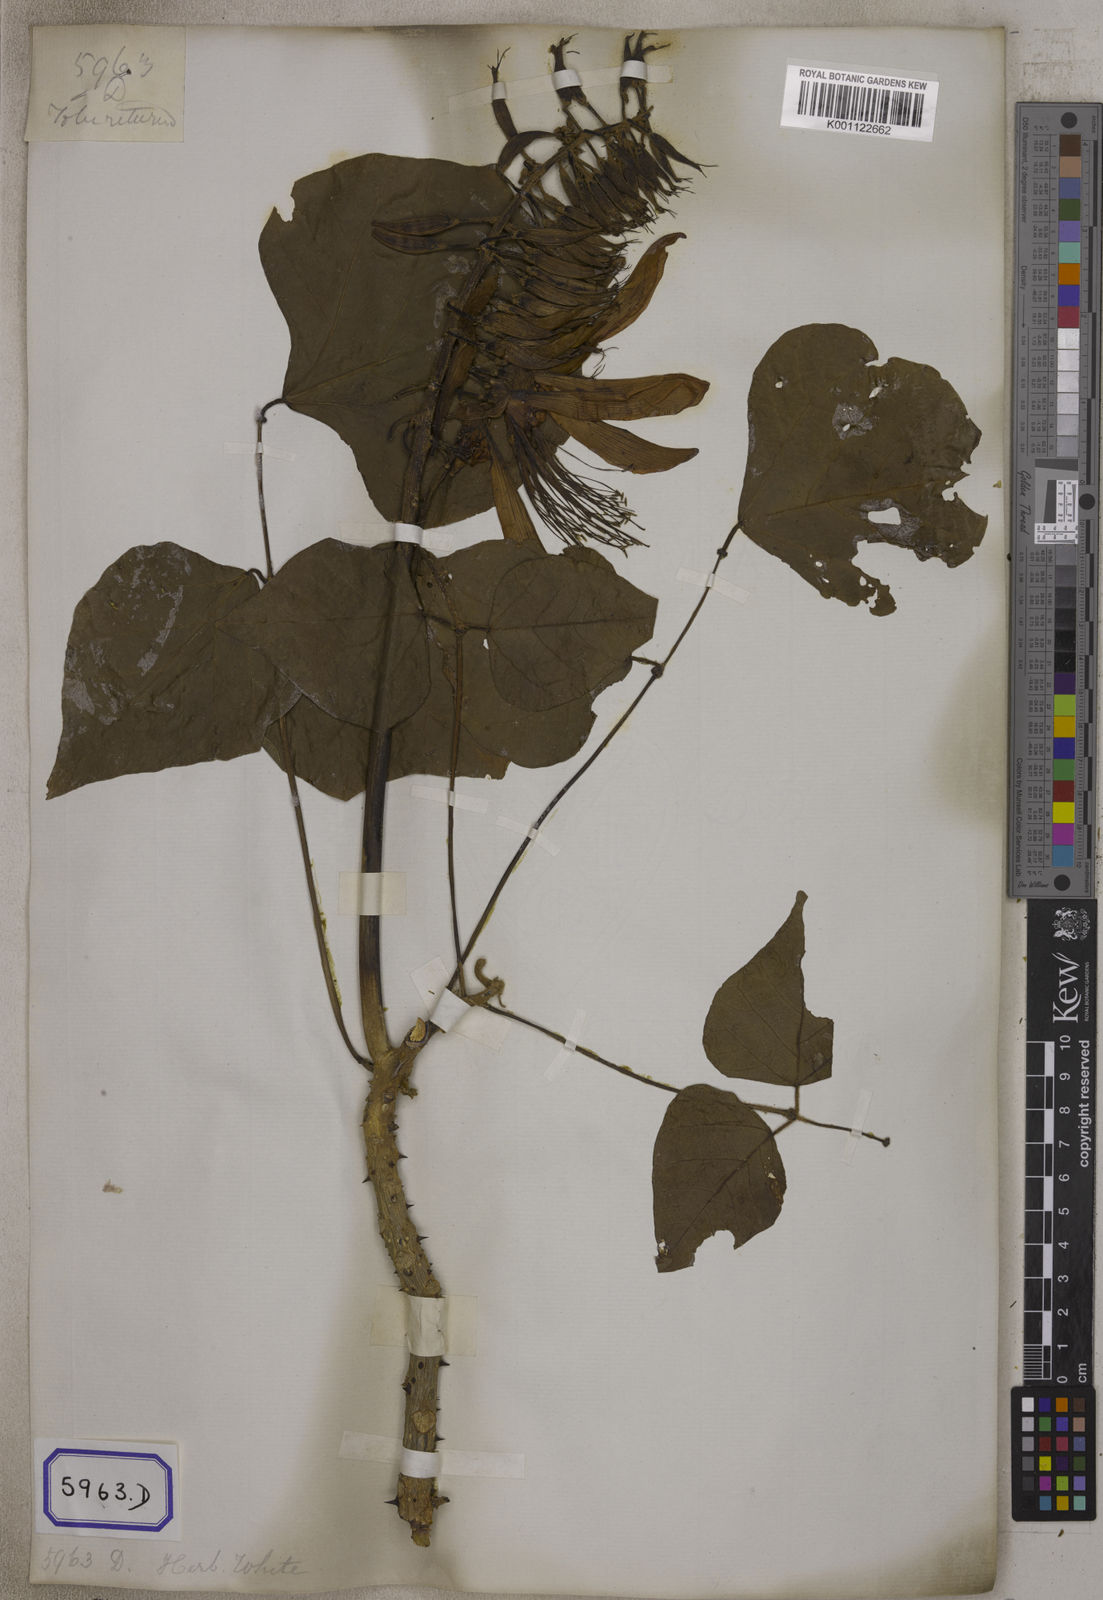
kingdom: Plantae
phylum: Tracheophyta
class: Magnoliopsida
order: Fabales
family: Fabaceae
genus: Erythrina
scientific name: Erythrina variegata
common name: Indian coral tree
